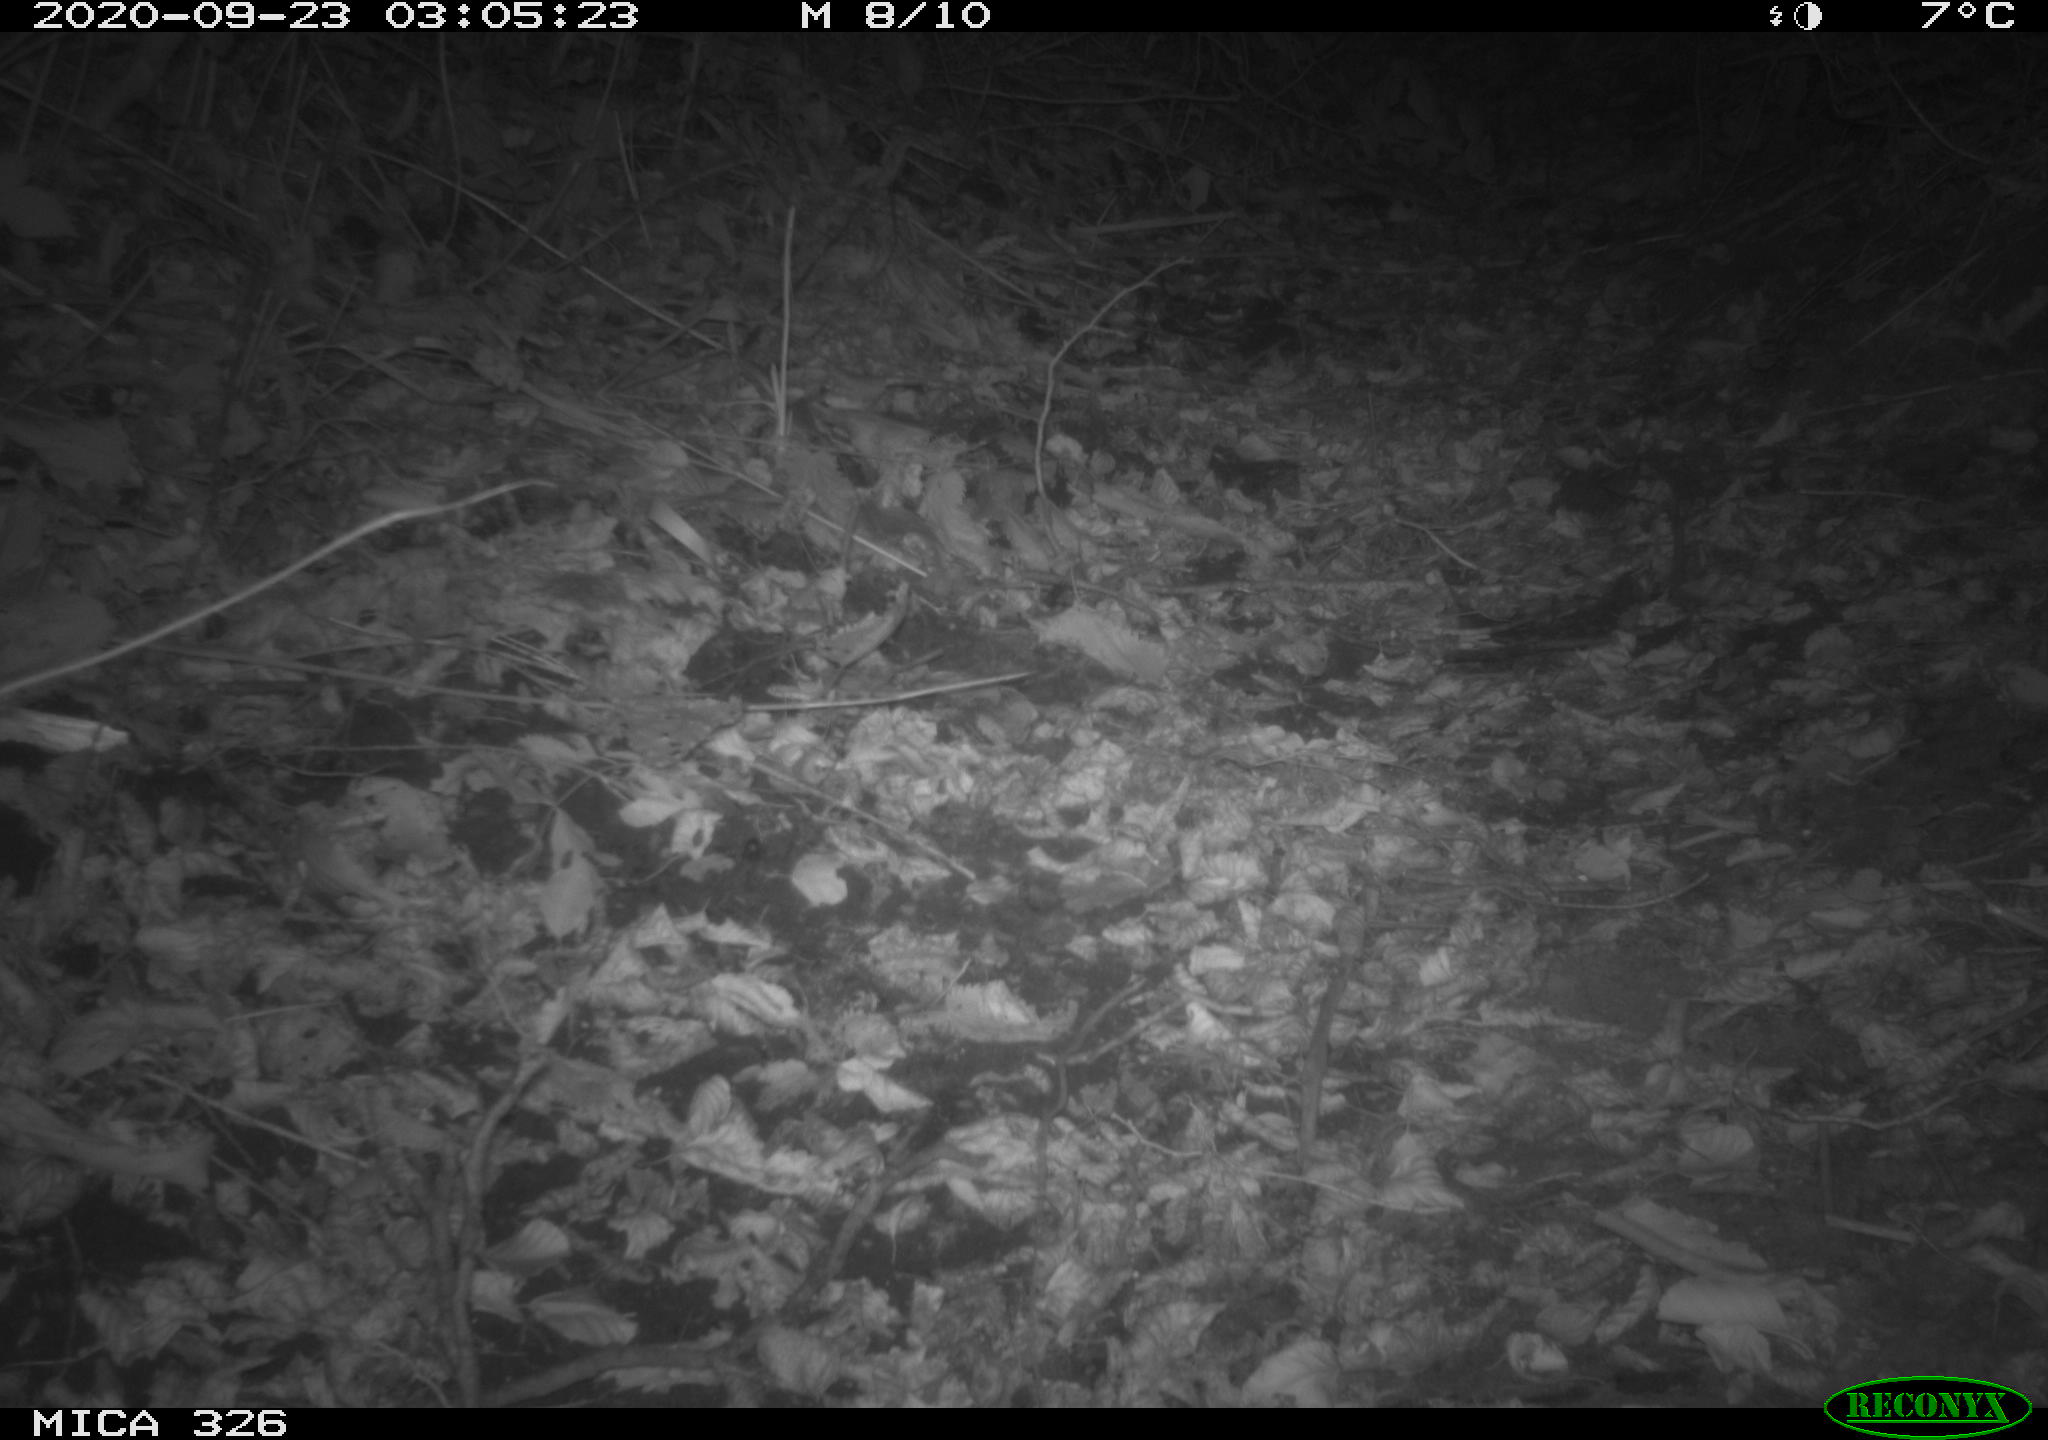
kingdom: Animalia
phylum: Chordata
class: Mammalia
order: Carnivora
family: Mustelidae
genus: Mustela
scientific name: Mustela putorius
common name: European polecat
